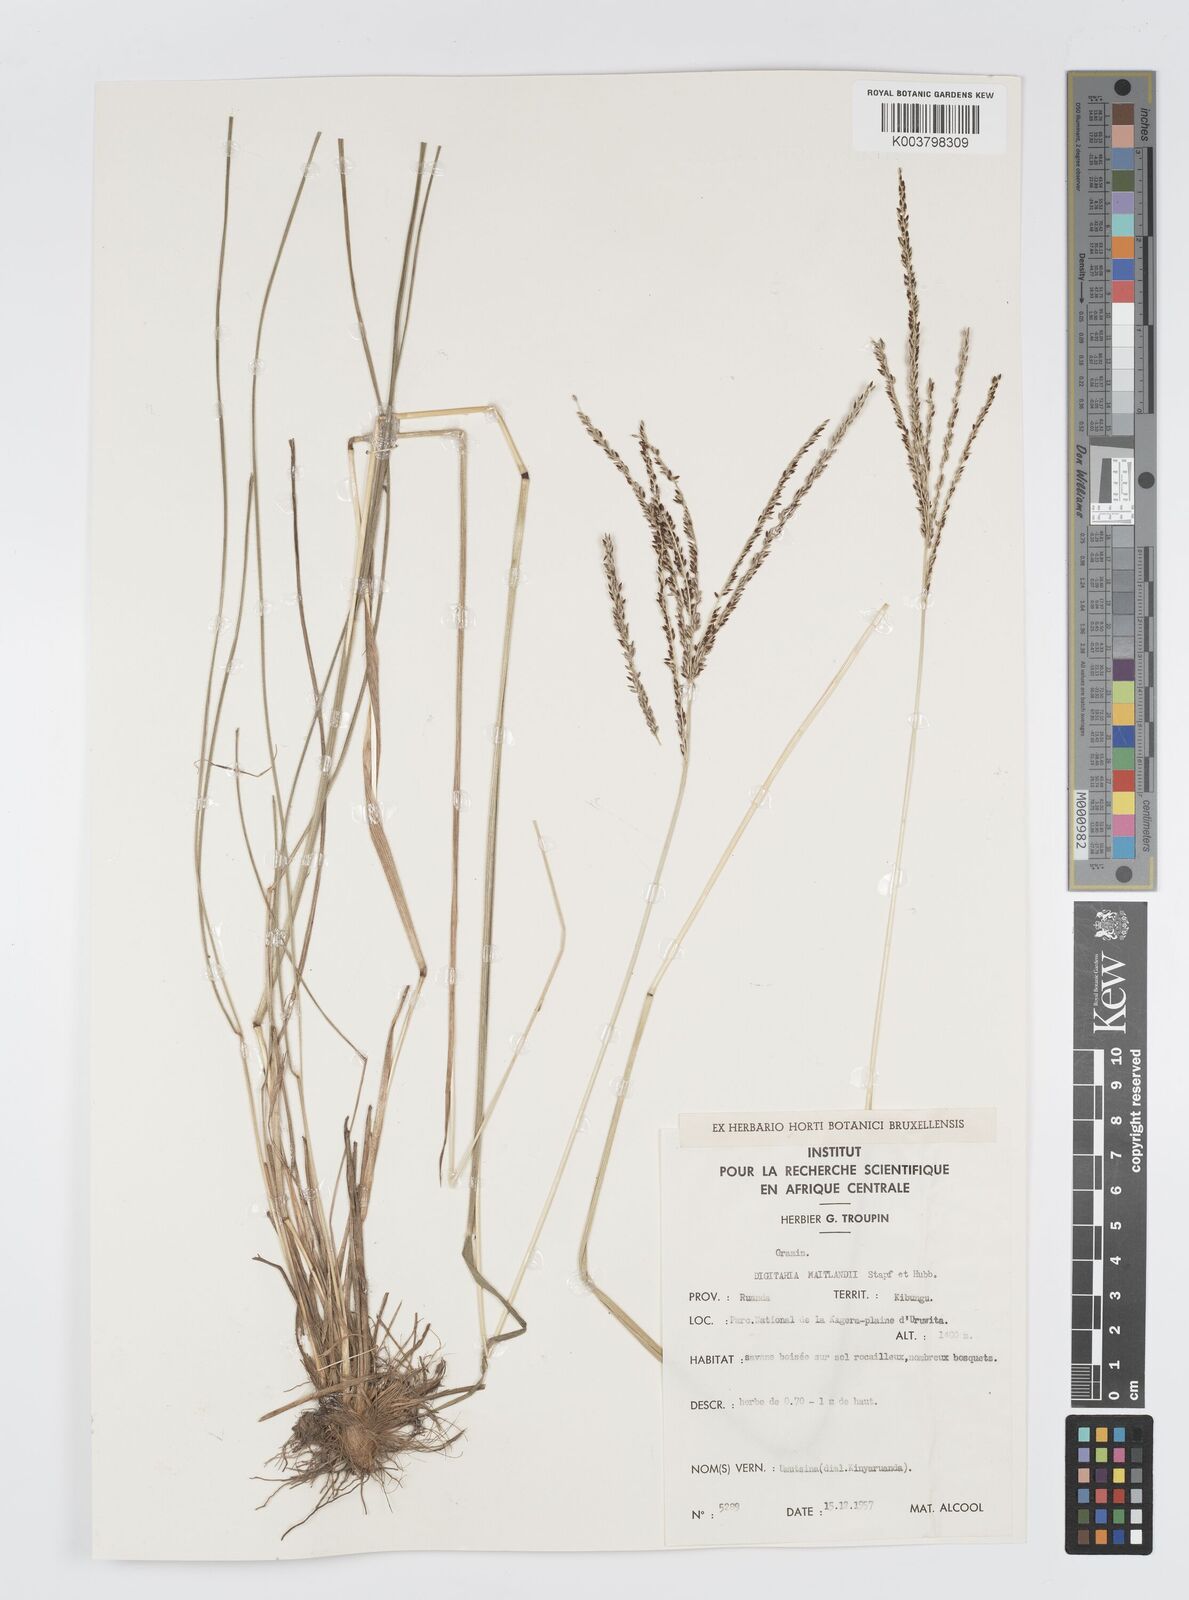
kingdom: Plantae
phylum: Tracheophyta
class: Liliopsida
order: Poales
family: Poaceae
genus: Digitaria
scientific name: Digitaria maitlandii
